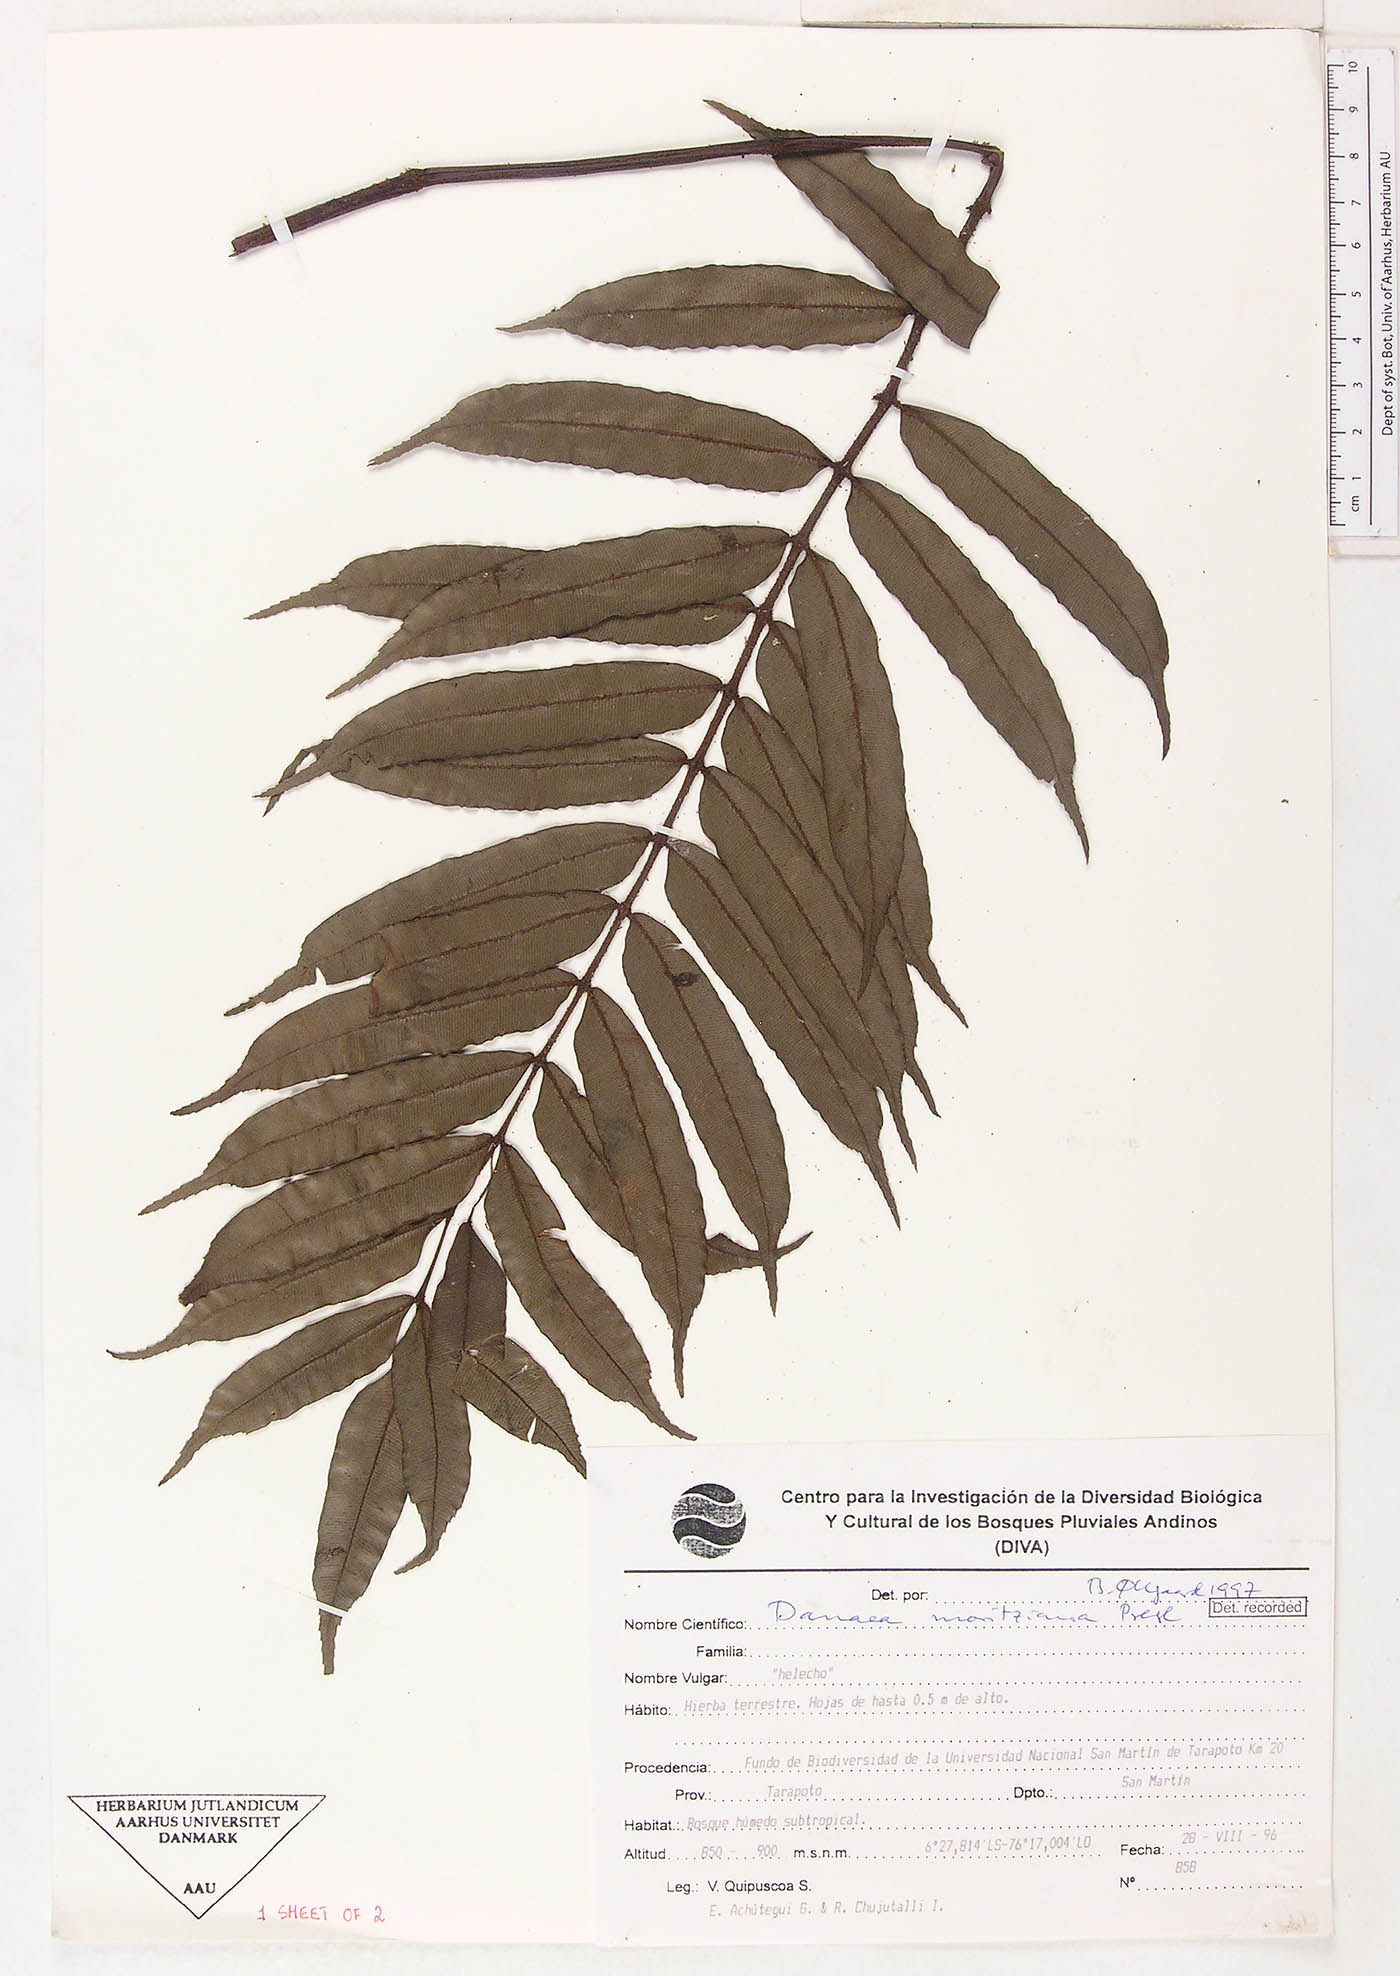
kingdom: Plantae
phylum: Tracheophyta
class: Polypodiopsida
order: Marattiales
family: Marattiaceae
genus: Danaea
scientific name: Danaea moritziana
